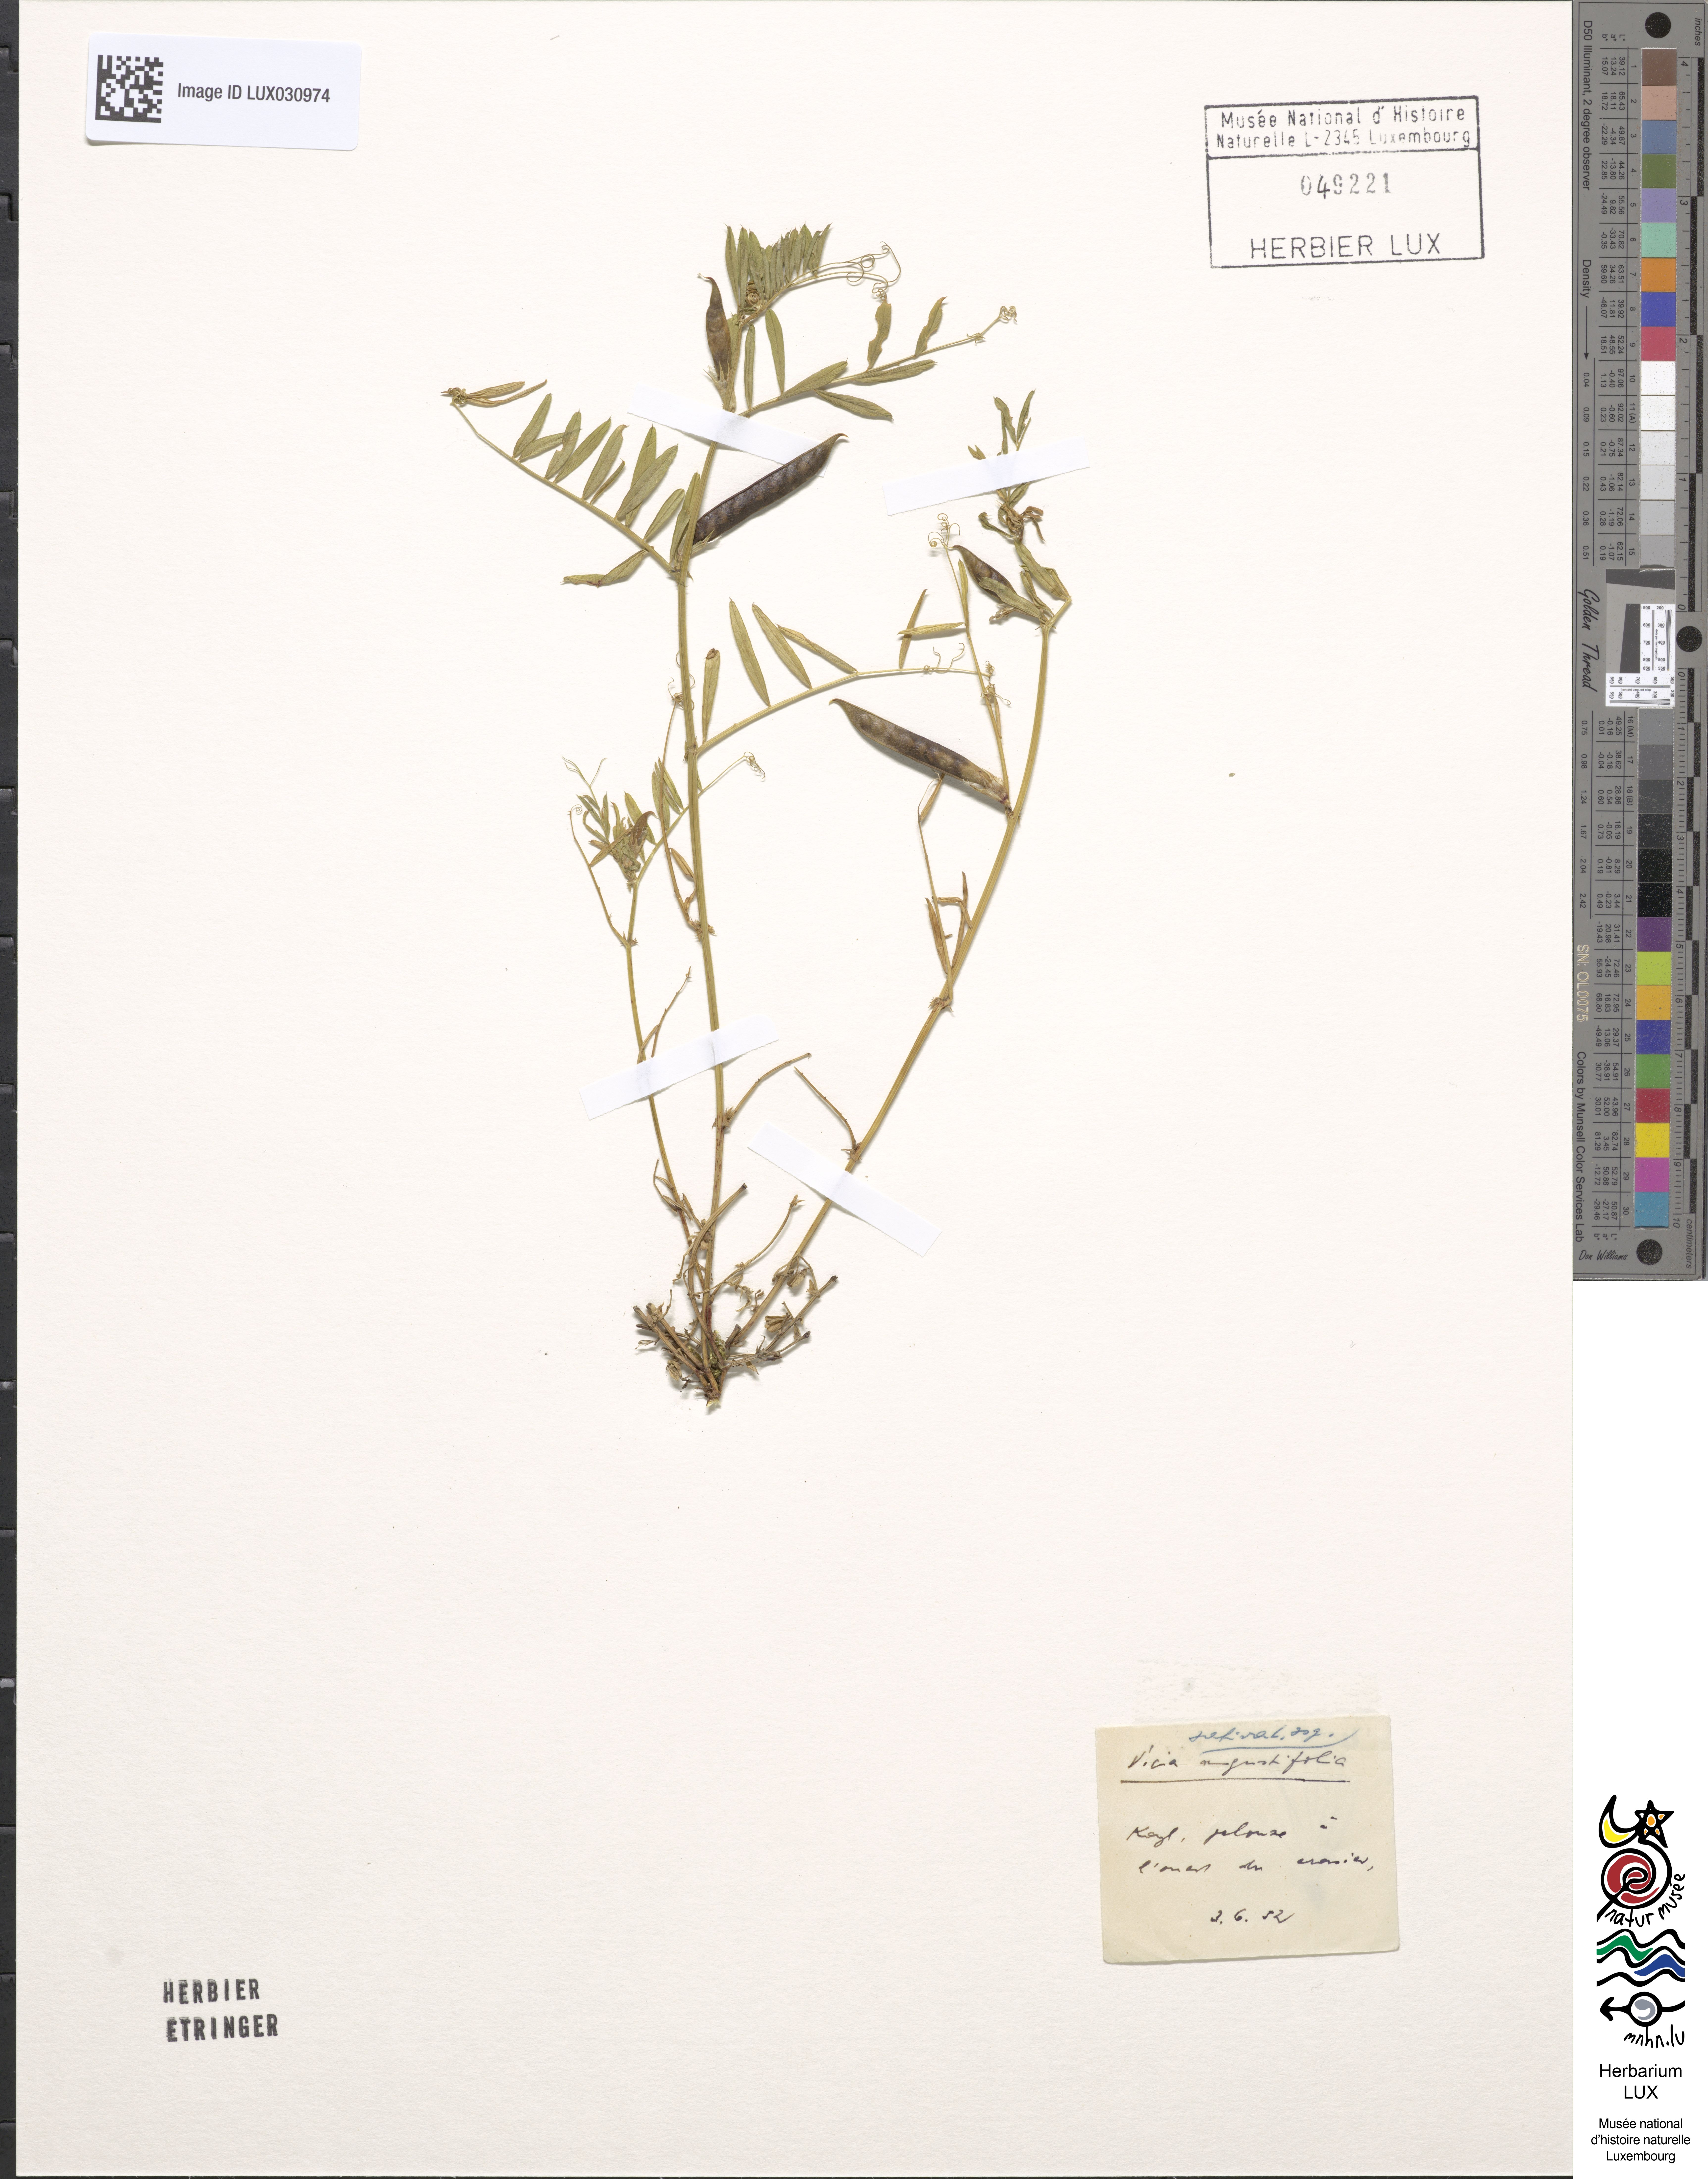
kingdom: Plantae
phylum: Tracheophyta
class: Magnoliopsida
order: Fabales
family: Fabaceae
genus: Vicia
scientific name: Vicia sativa
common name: Garden vetch
